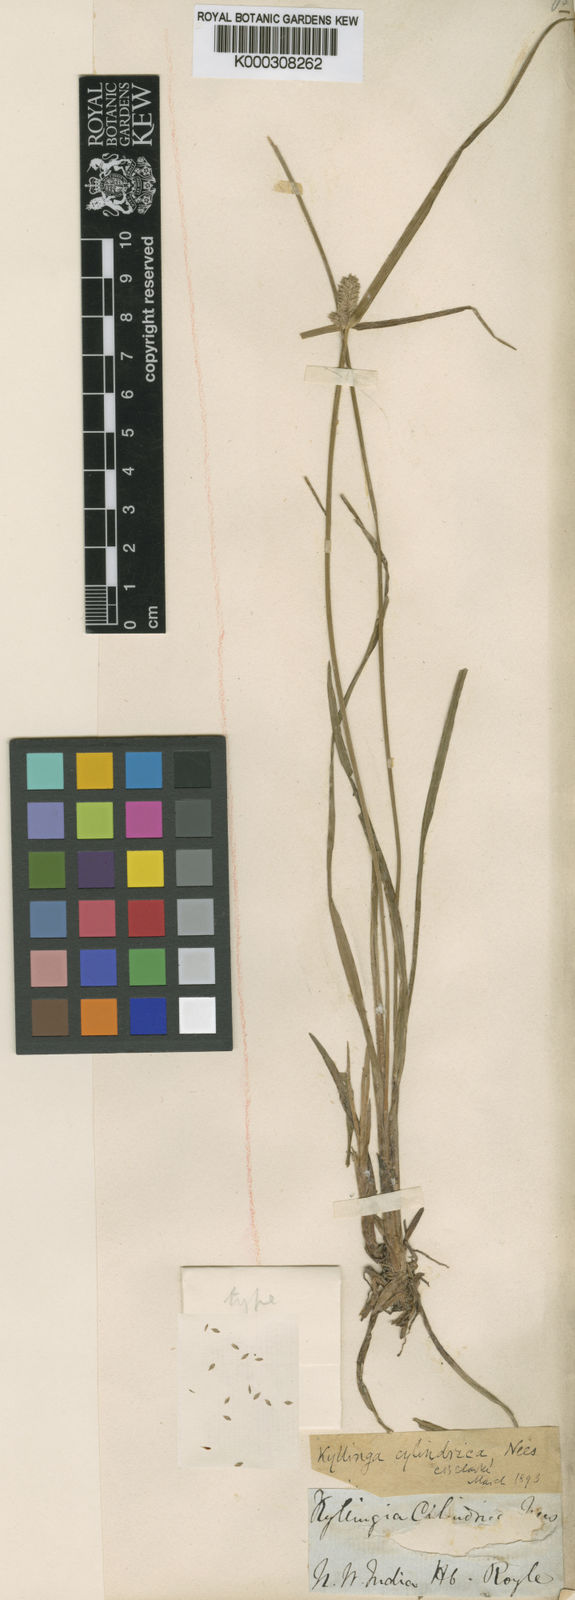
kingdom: Plantae
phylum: Tracheophyta
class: Liliopsida
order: Poales
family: Cyperaceae
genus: Cyperus
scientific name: Cyperus sesquiflorus
